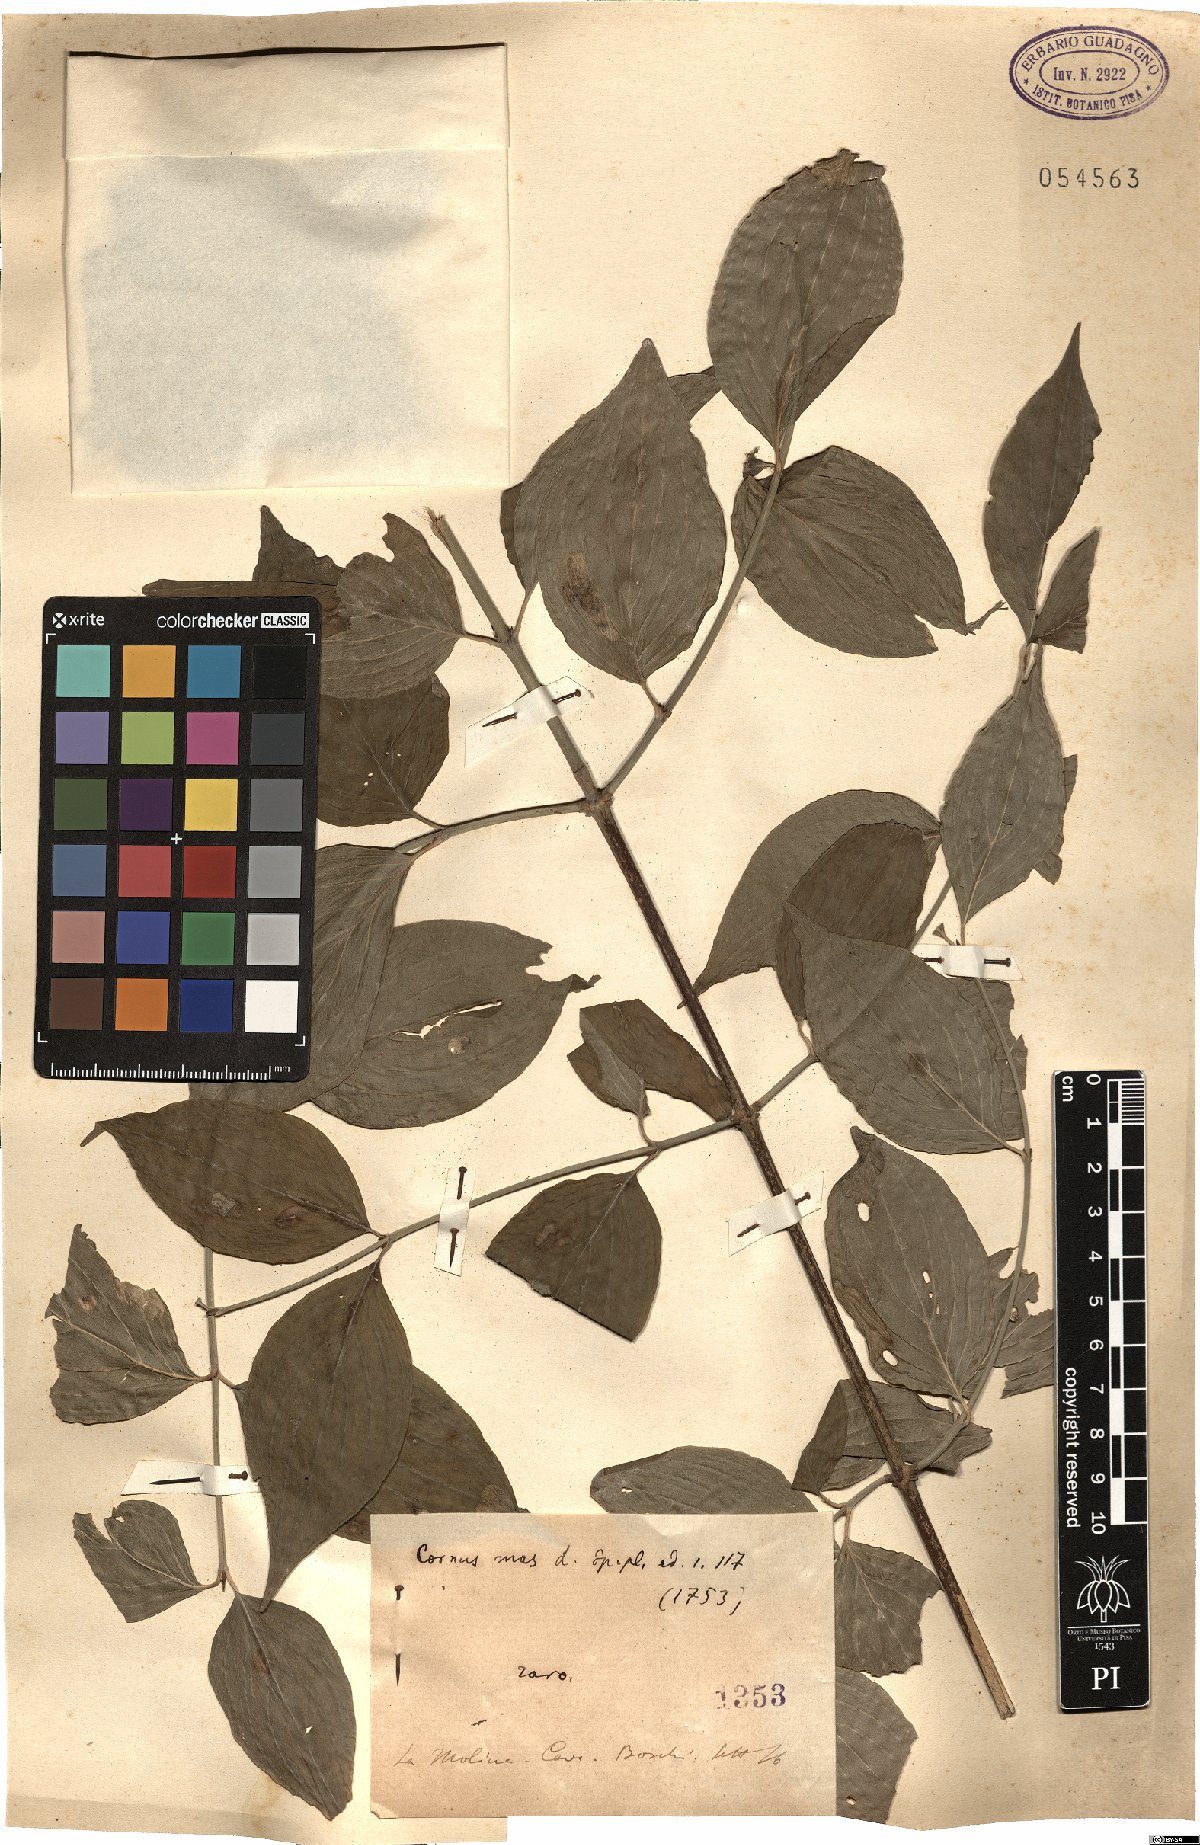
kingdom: Plantae
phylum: Tracheophyta
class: Magnoliopsida
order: Cornales
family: Cornaceae
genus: Cornus
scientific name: Cornus mas
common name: Cornelian-cherry
